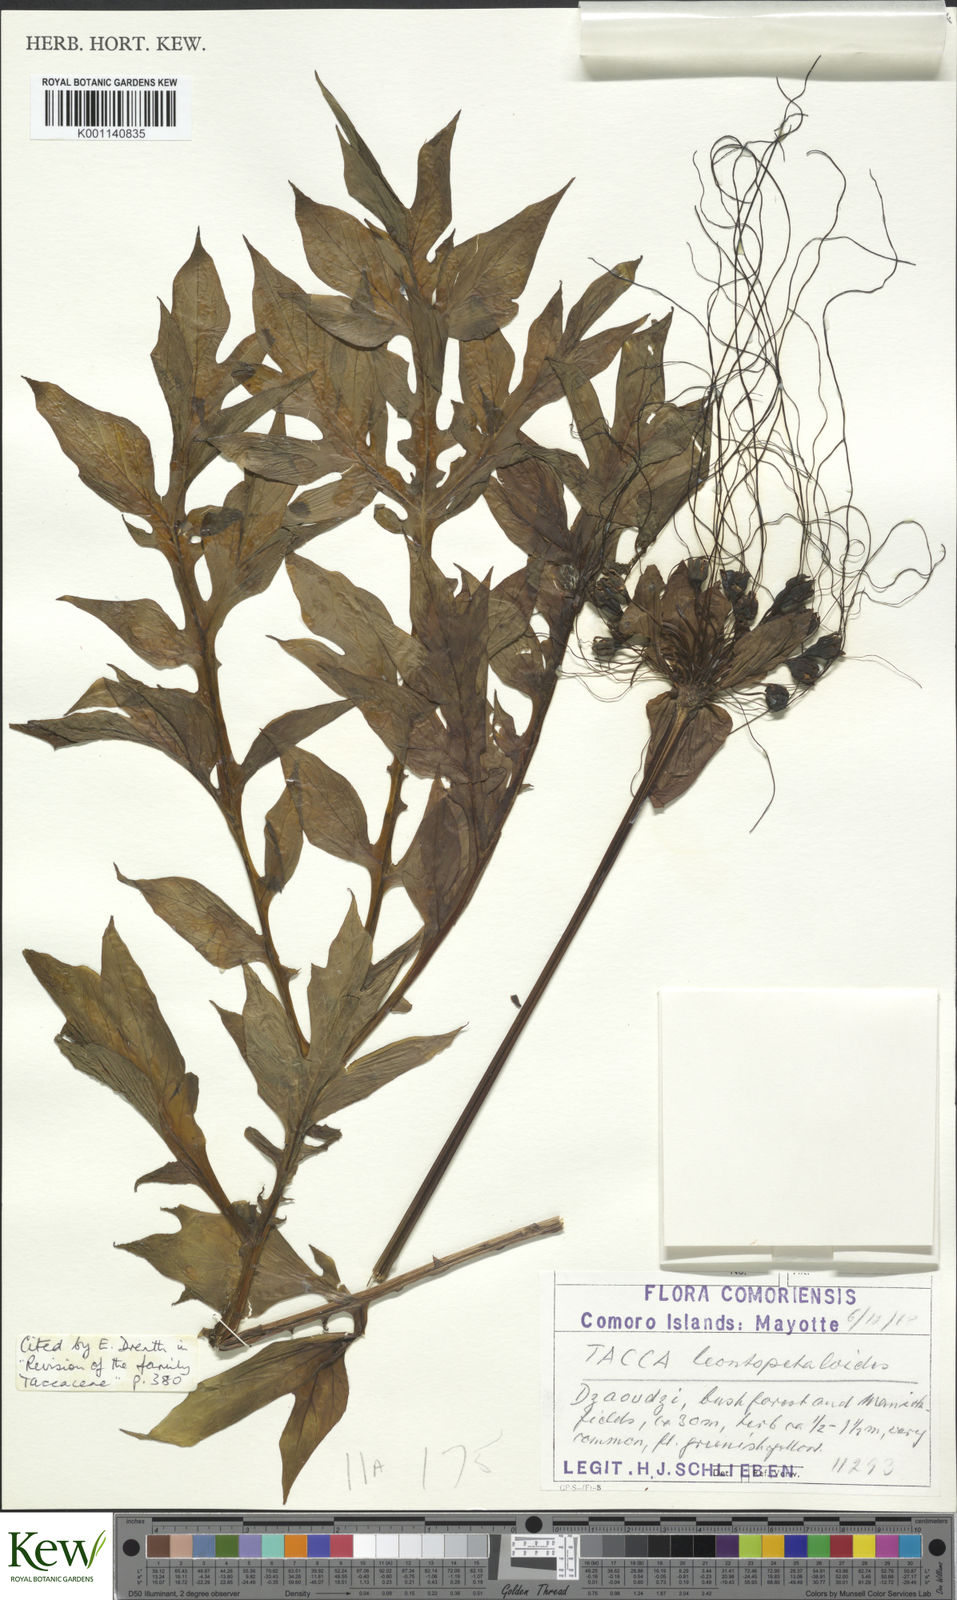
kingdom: Plantae
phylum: Tracheophyta
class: Liliopsida
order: Dioscoreales
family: Dioscoreaceae
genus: Tacca
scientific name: Tacca leontopetaloides
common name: Arrowroot
